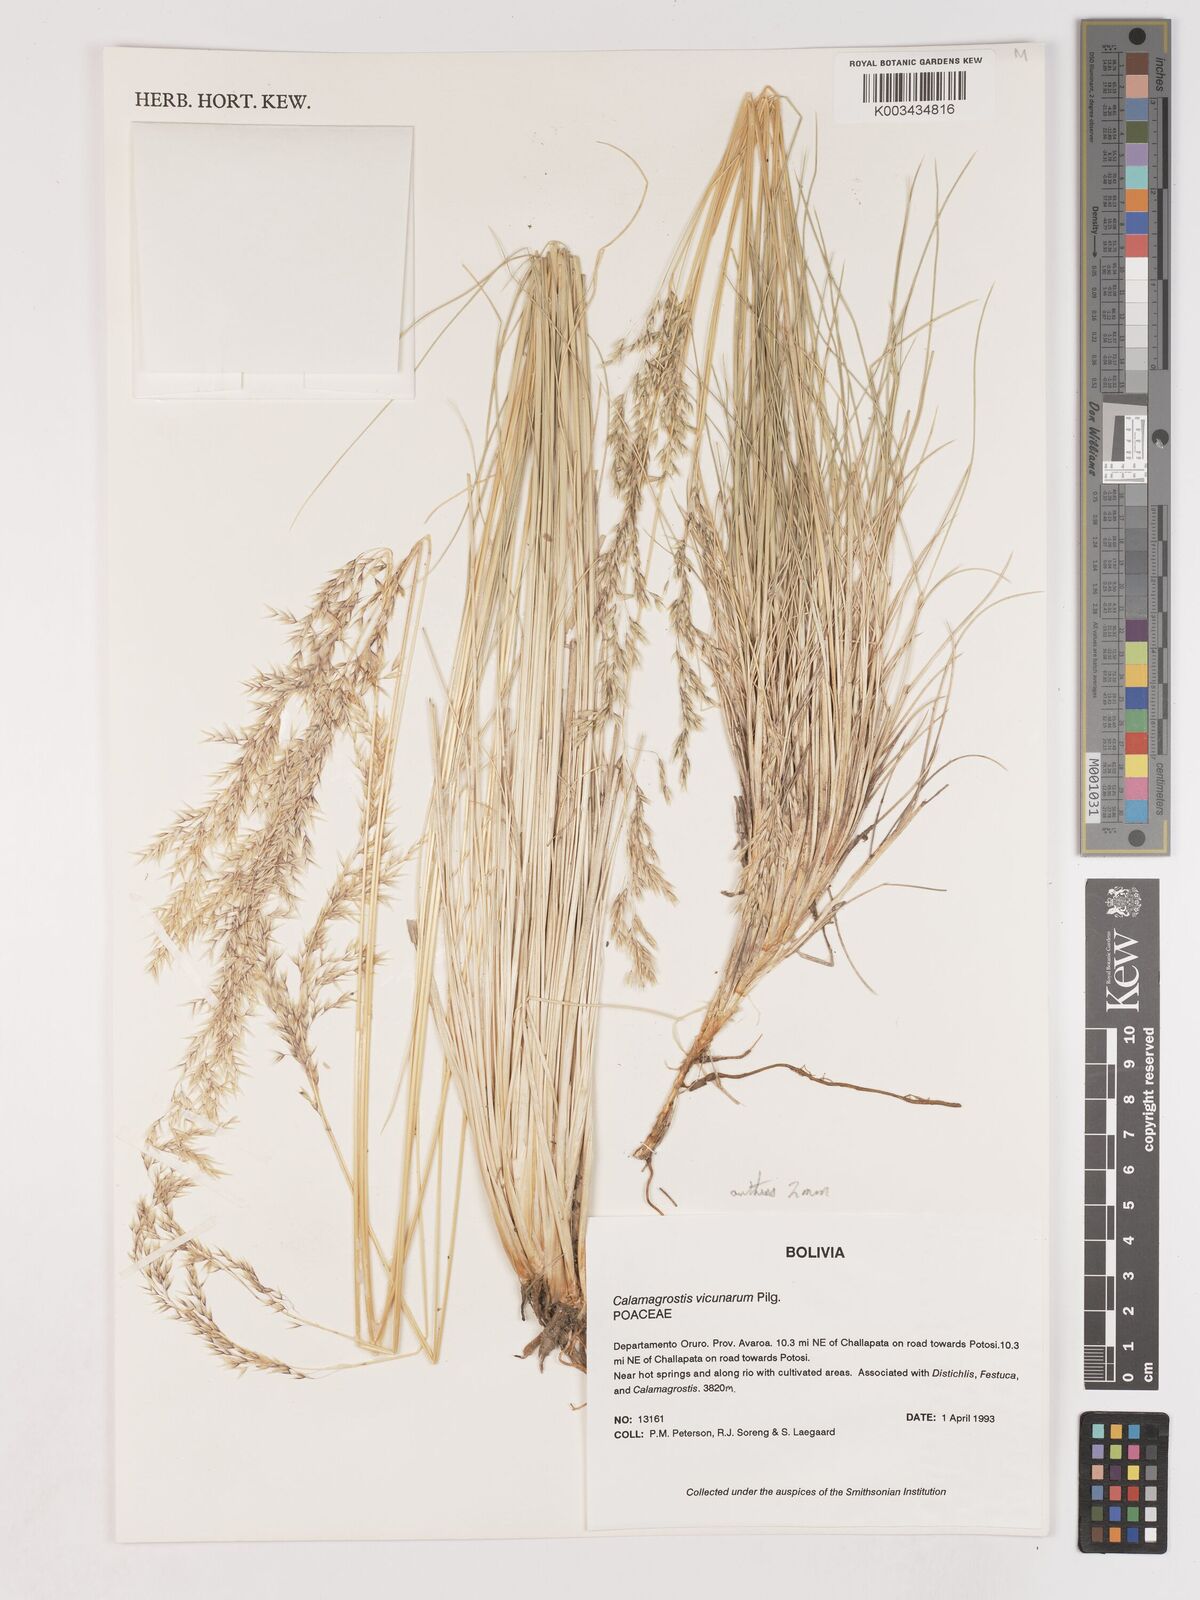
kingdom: Plantae
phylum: Tracheophyta
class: Liliopsida
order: Poales
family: Poaceae
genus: Cinnagrostis
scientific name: Cinnagrostis orbignyana
